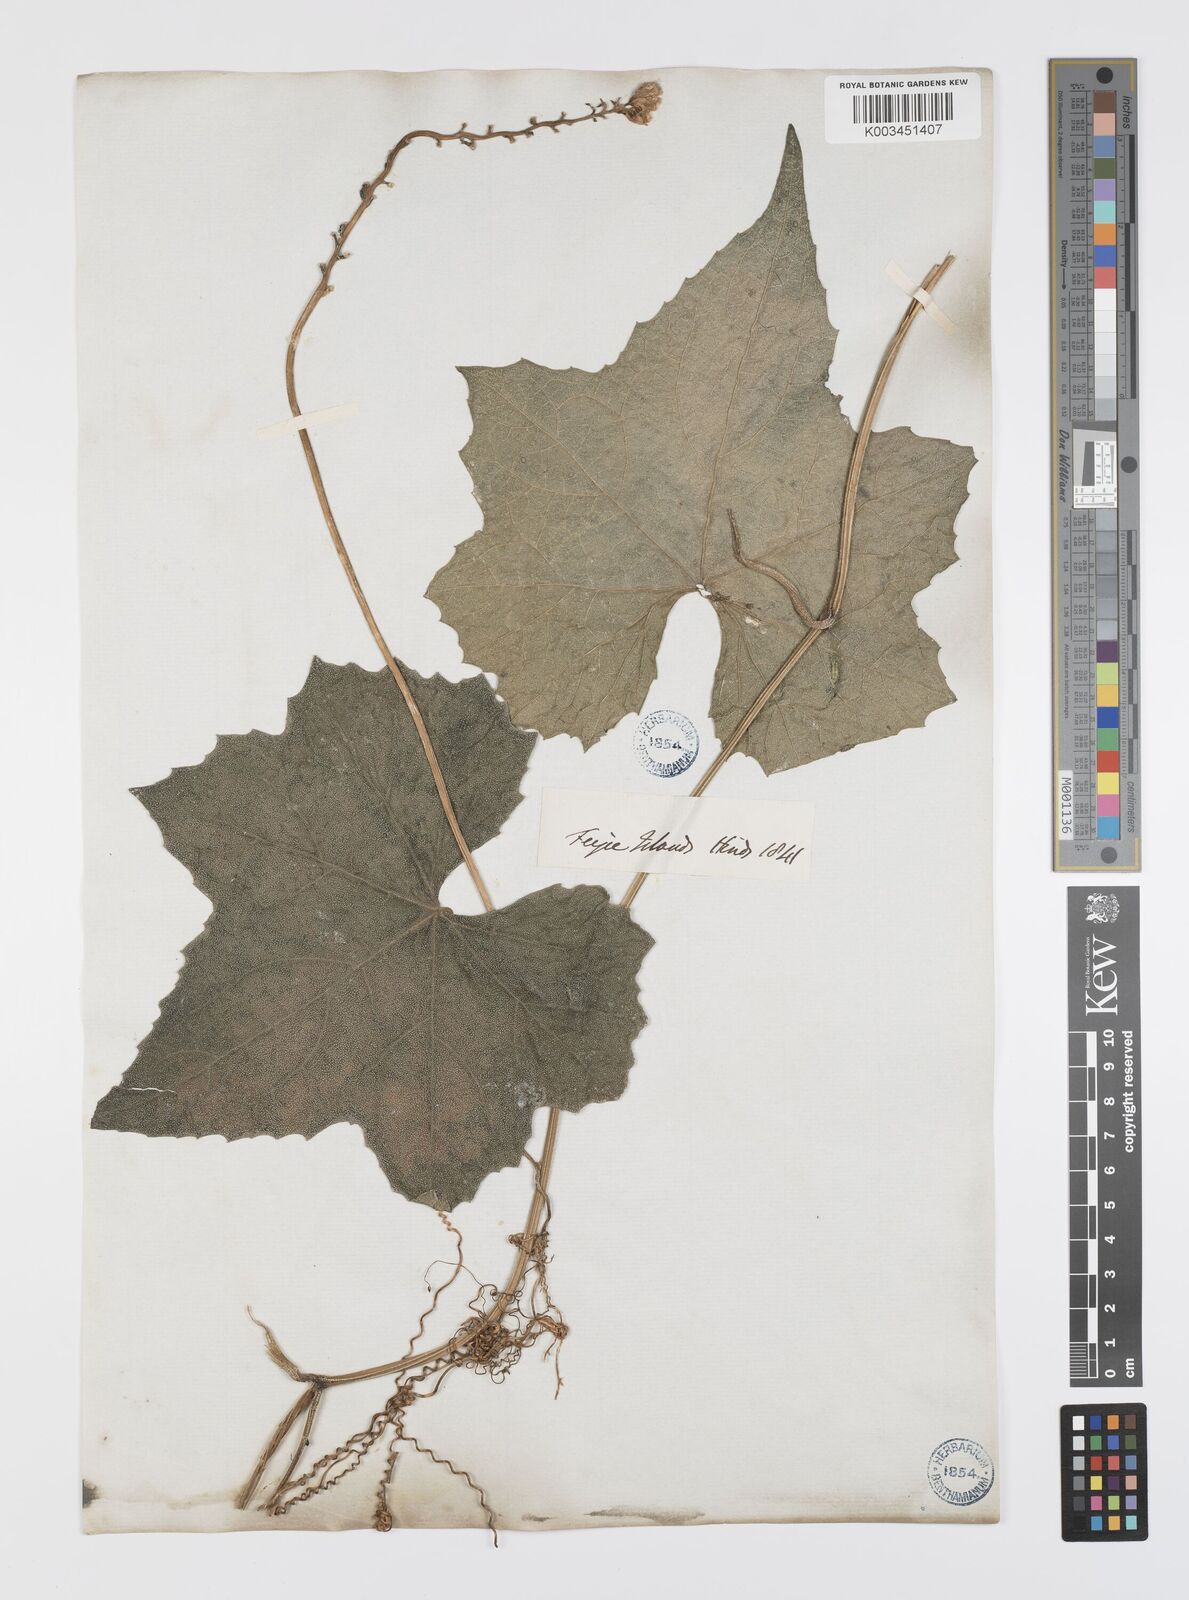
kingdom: Plantae
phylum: Tracheophyta
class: Magnoliopsida
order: Cucurbitales
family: Cucurbitaceae
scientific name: Cucurbitaceae
